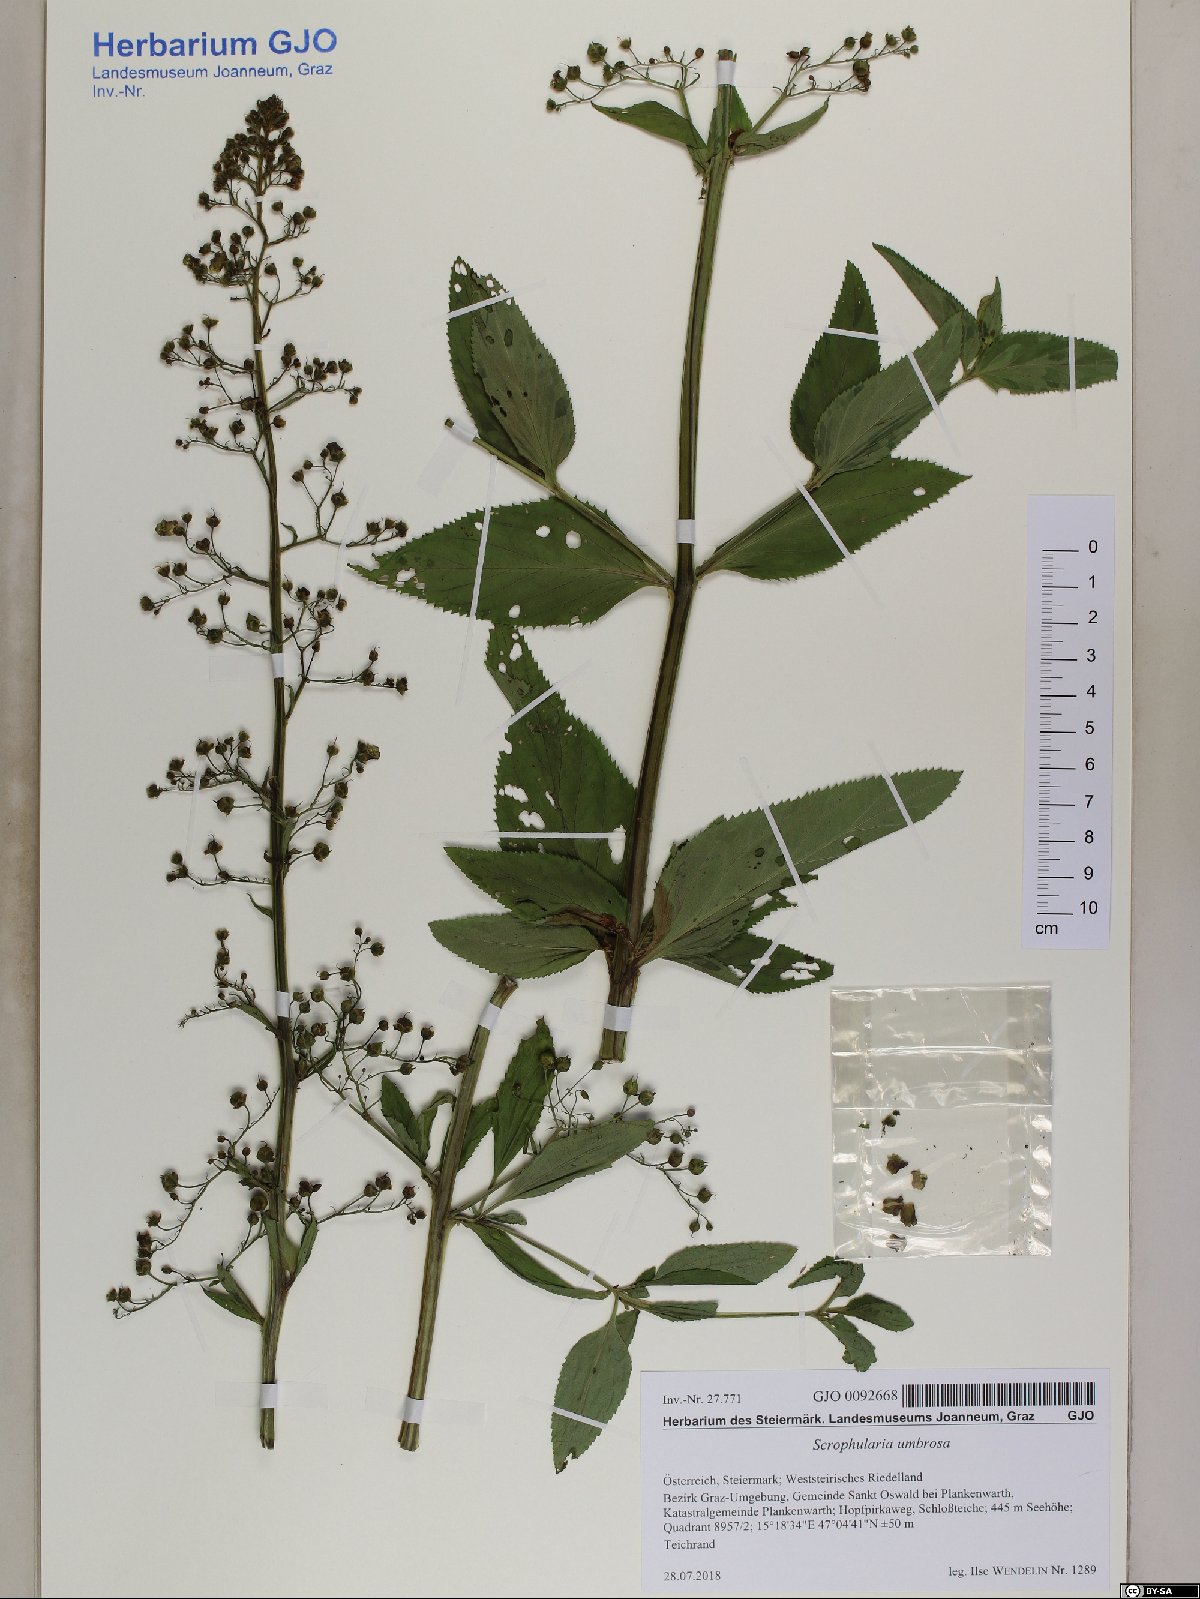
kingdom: Plantae
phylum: Tracheophyta
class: Magnoliopsida
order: Lamiales
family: Scrophulariaceae
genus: Scrophularia
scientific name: Scrophularia umbrosa
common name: Green figwort
